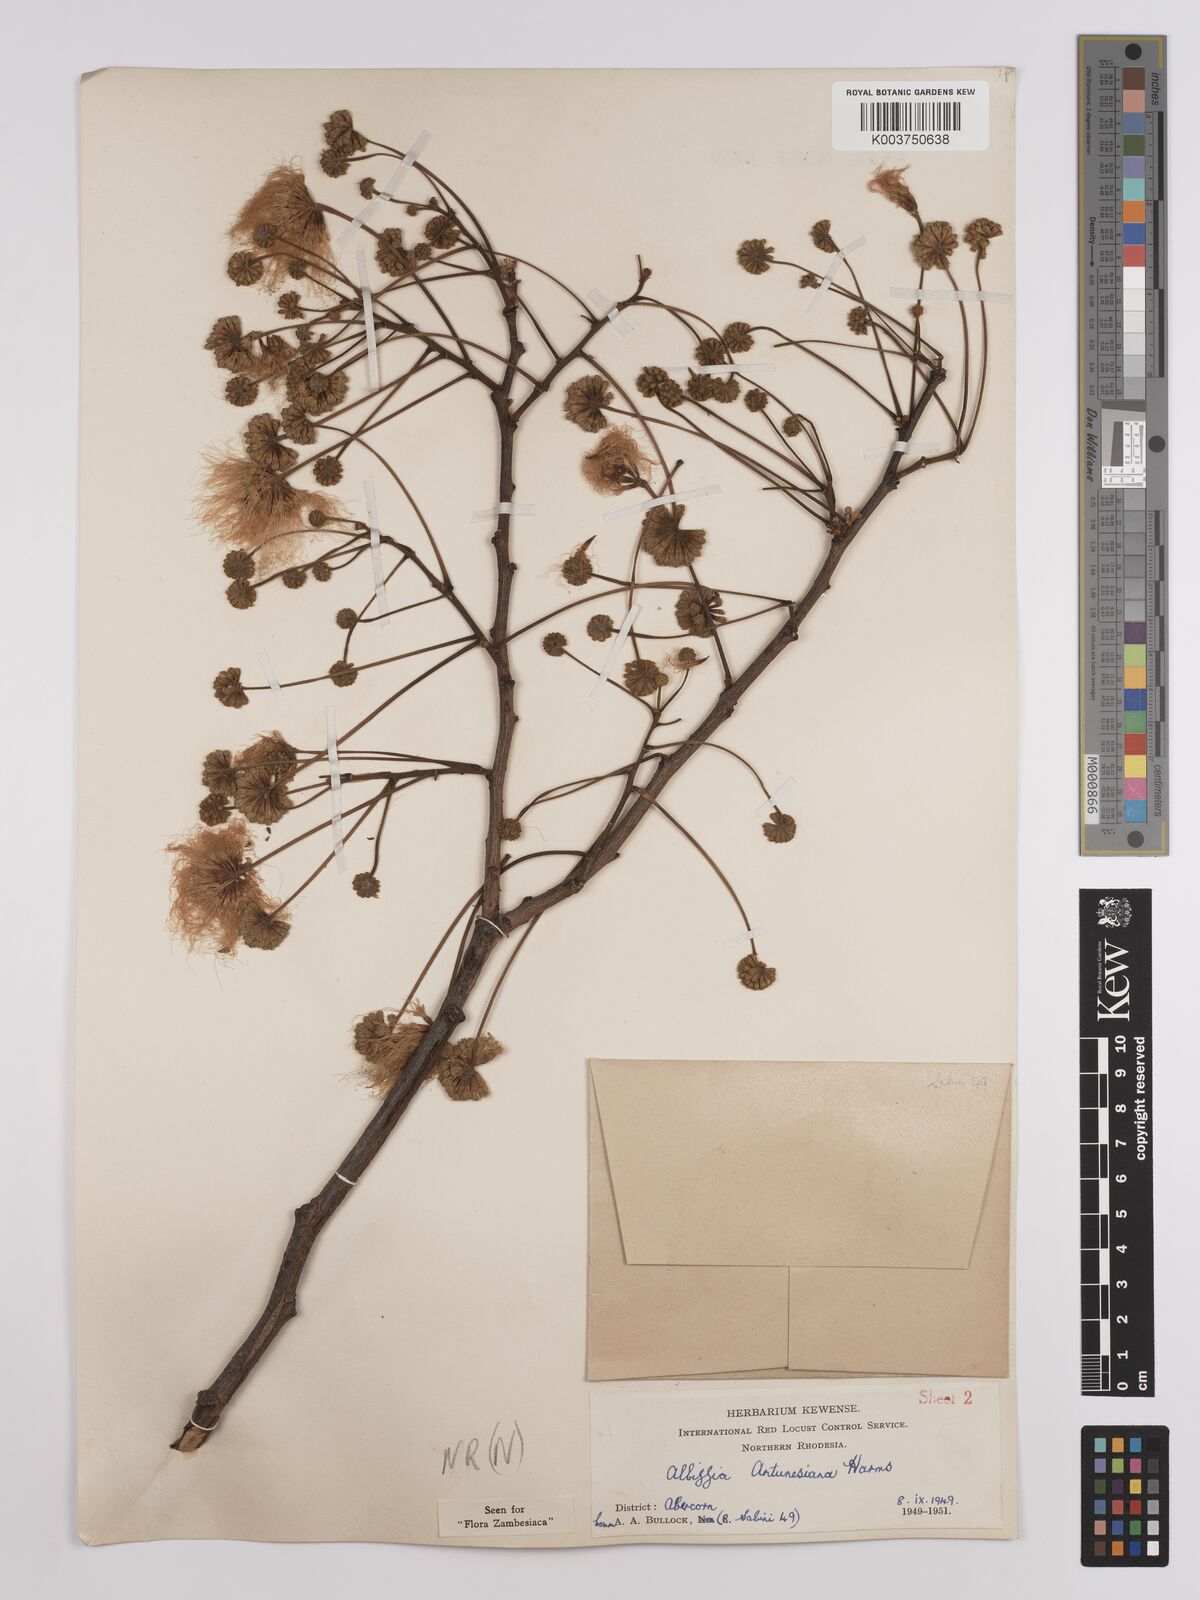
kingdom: Plantae
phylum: Tracheophyta
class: Magnoliopsida
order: Fabales
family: Fabaceae
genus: Albizia
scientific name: Albizia antunesiana
